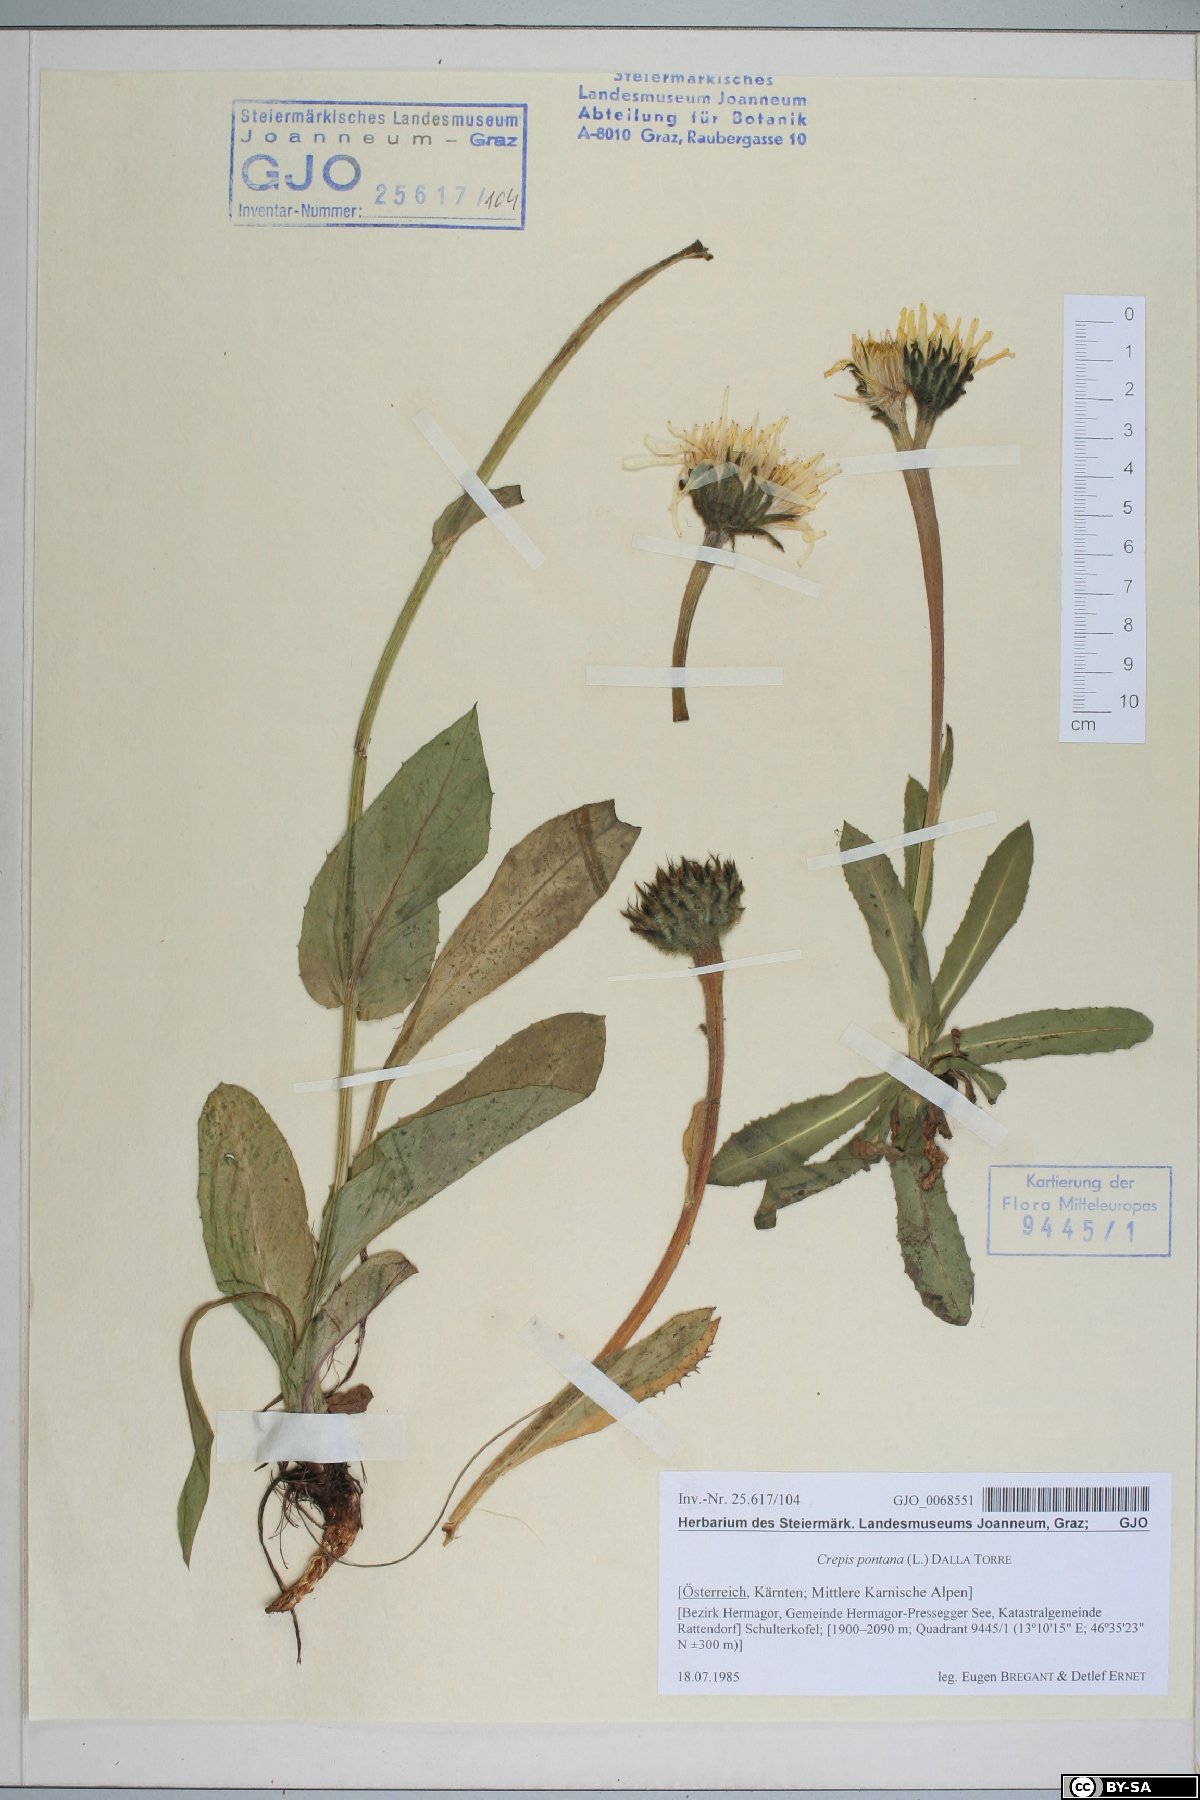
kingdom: Plantae
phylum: Tracheophyta
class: Magnoliopsida
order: Asterales
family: Asteraceae
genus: Crepis
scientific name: Crepis pontana
